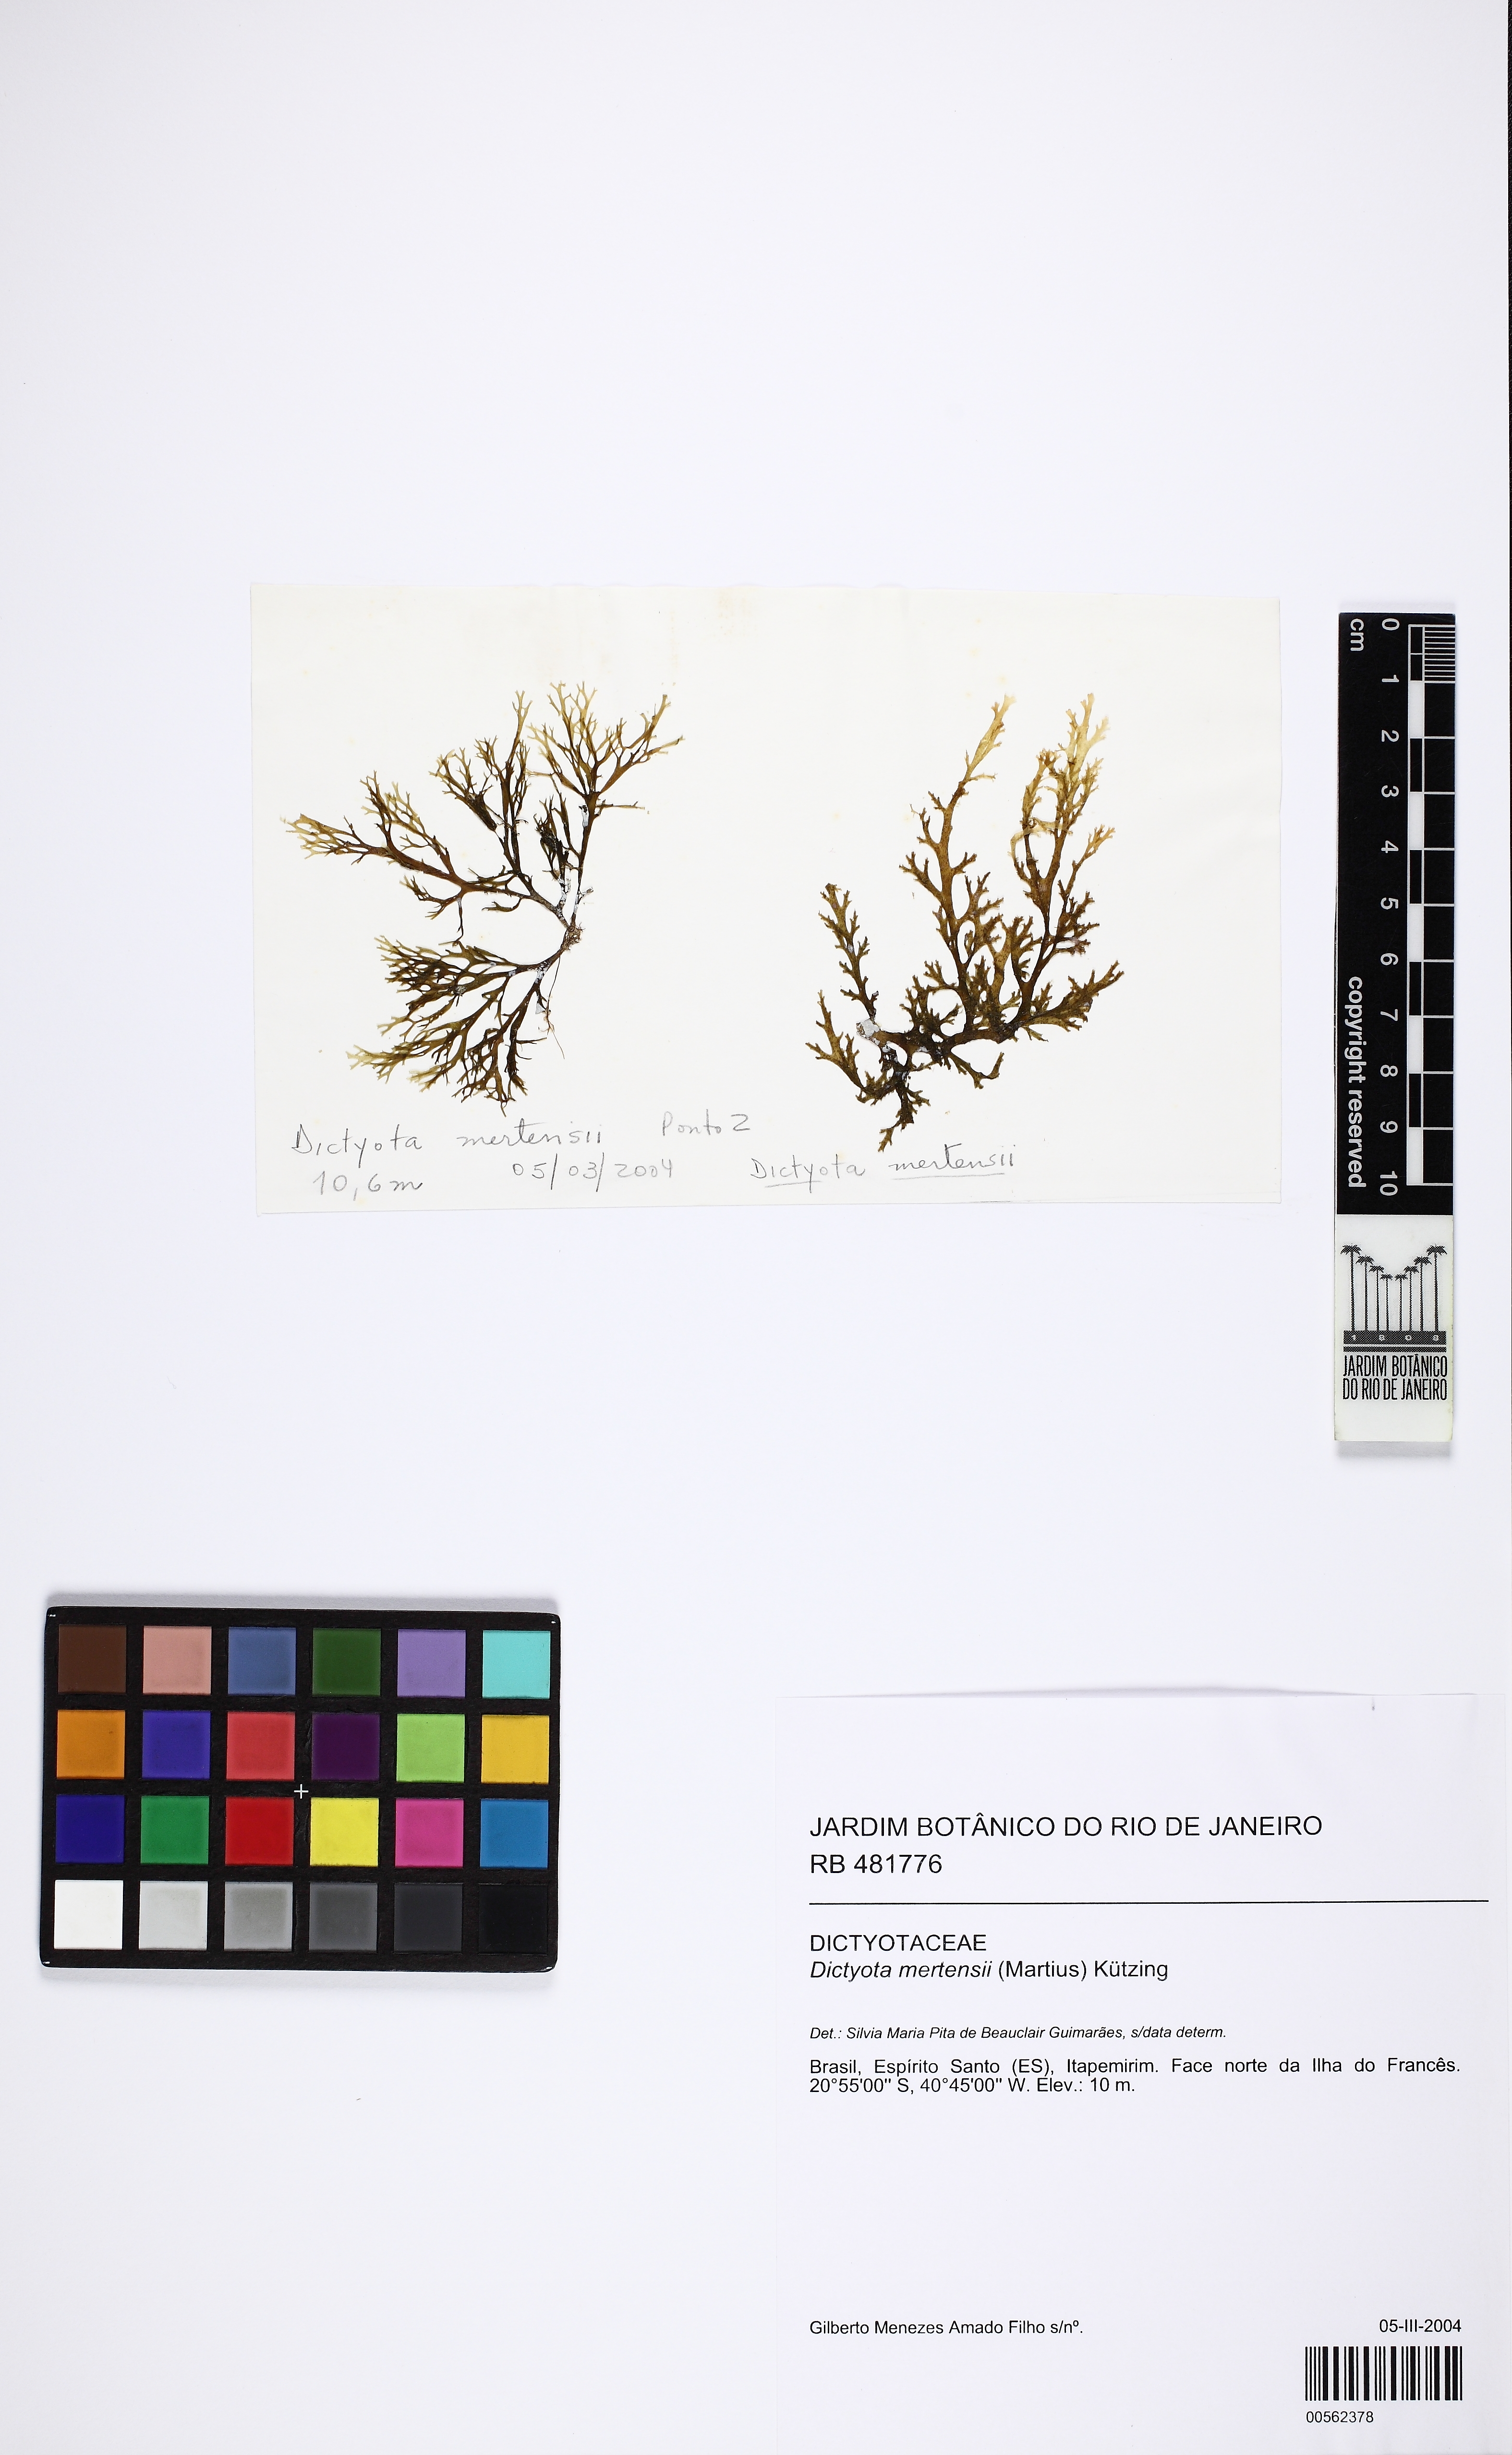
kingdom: Chromista
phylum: Ochrophyta
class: Phaeophyceae
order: Dictyotales
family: Dictyotaceae
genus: Dictyota
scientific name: Dictyota mertensii
